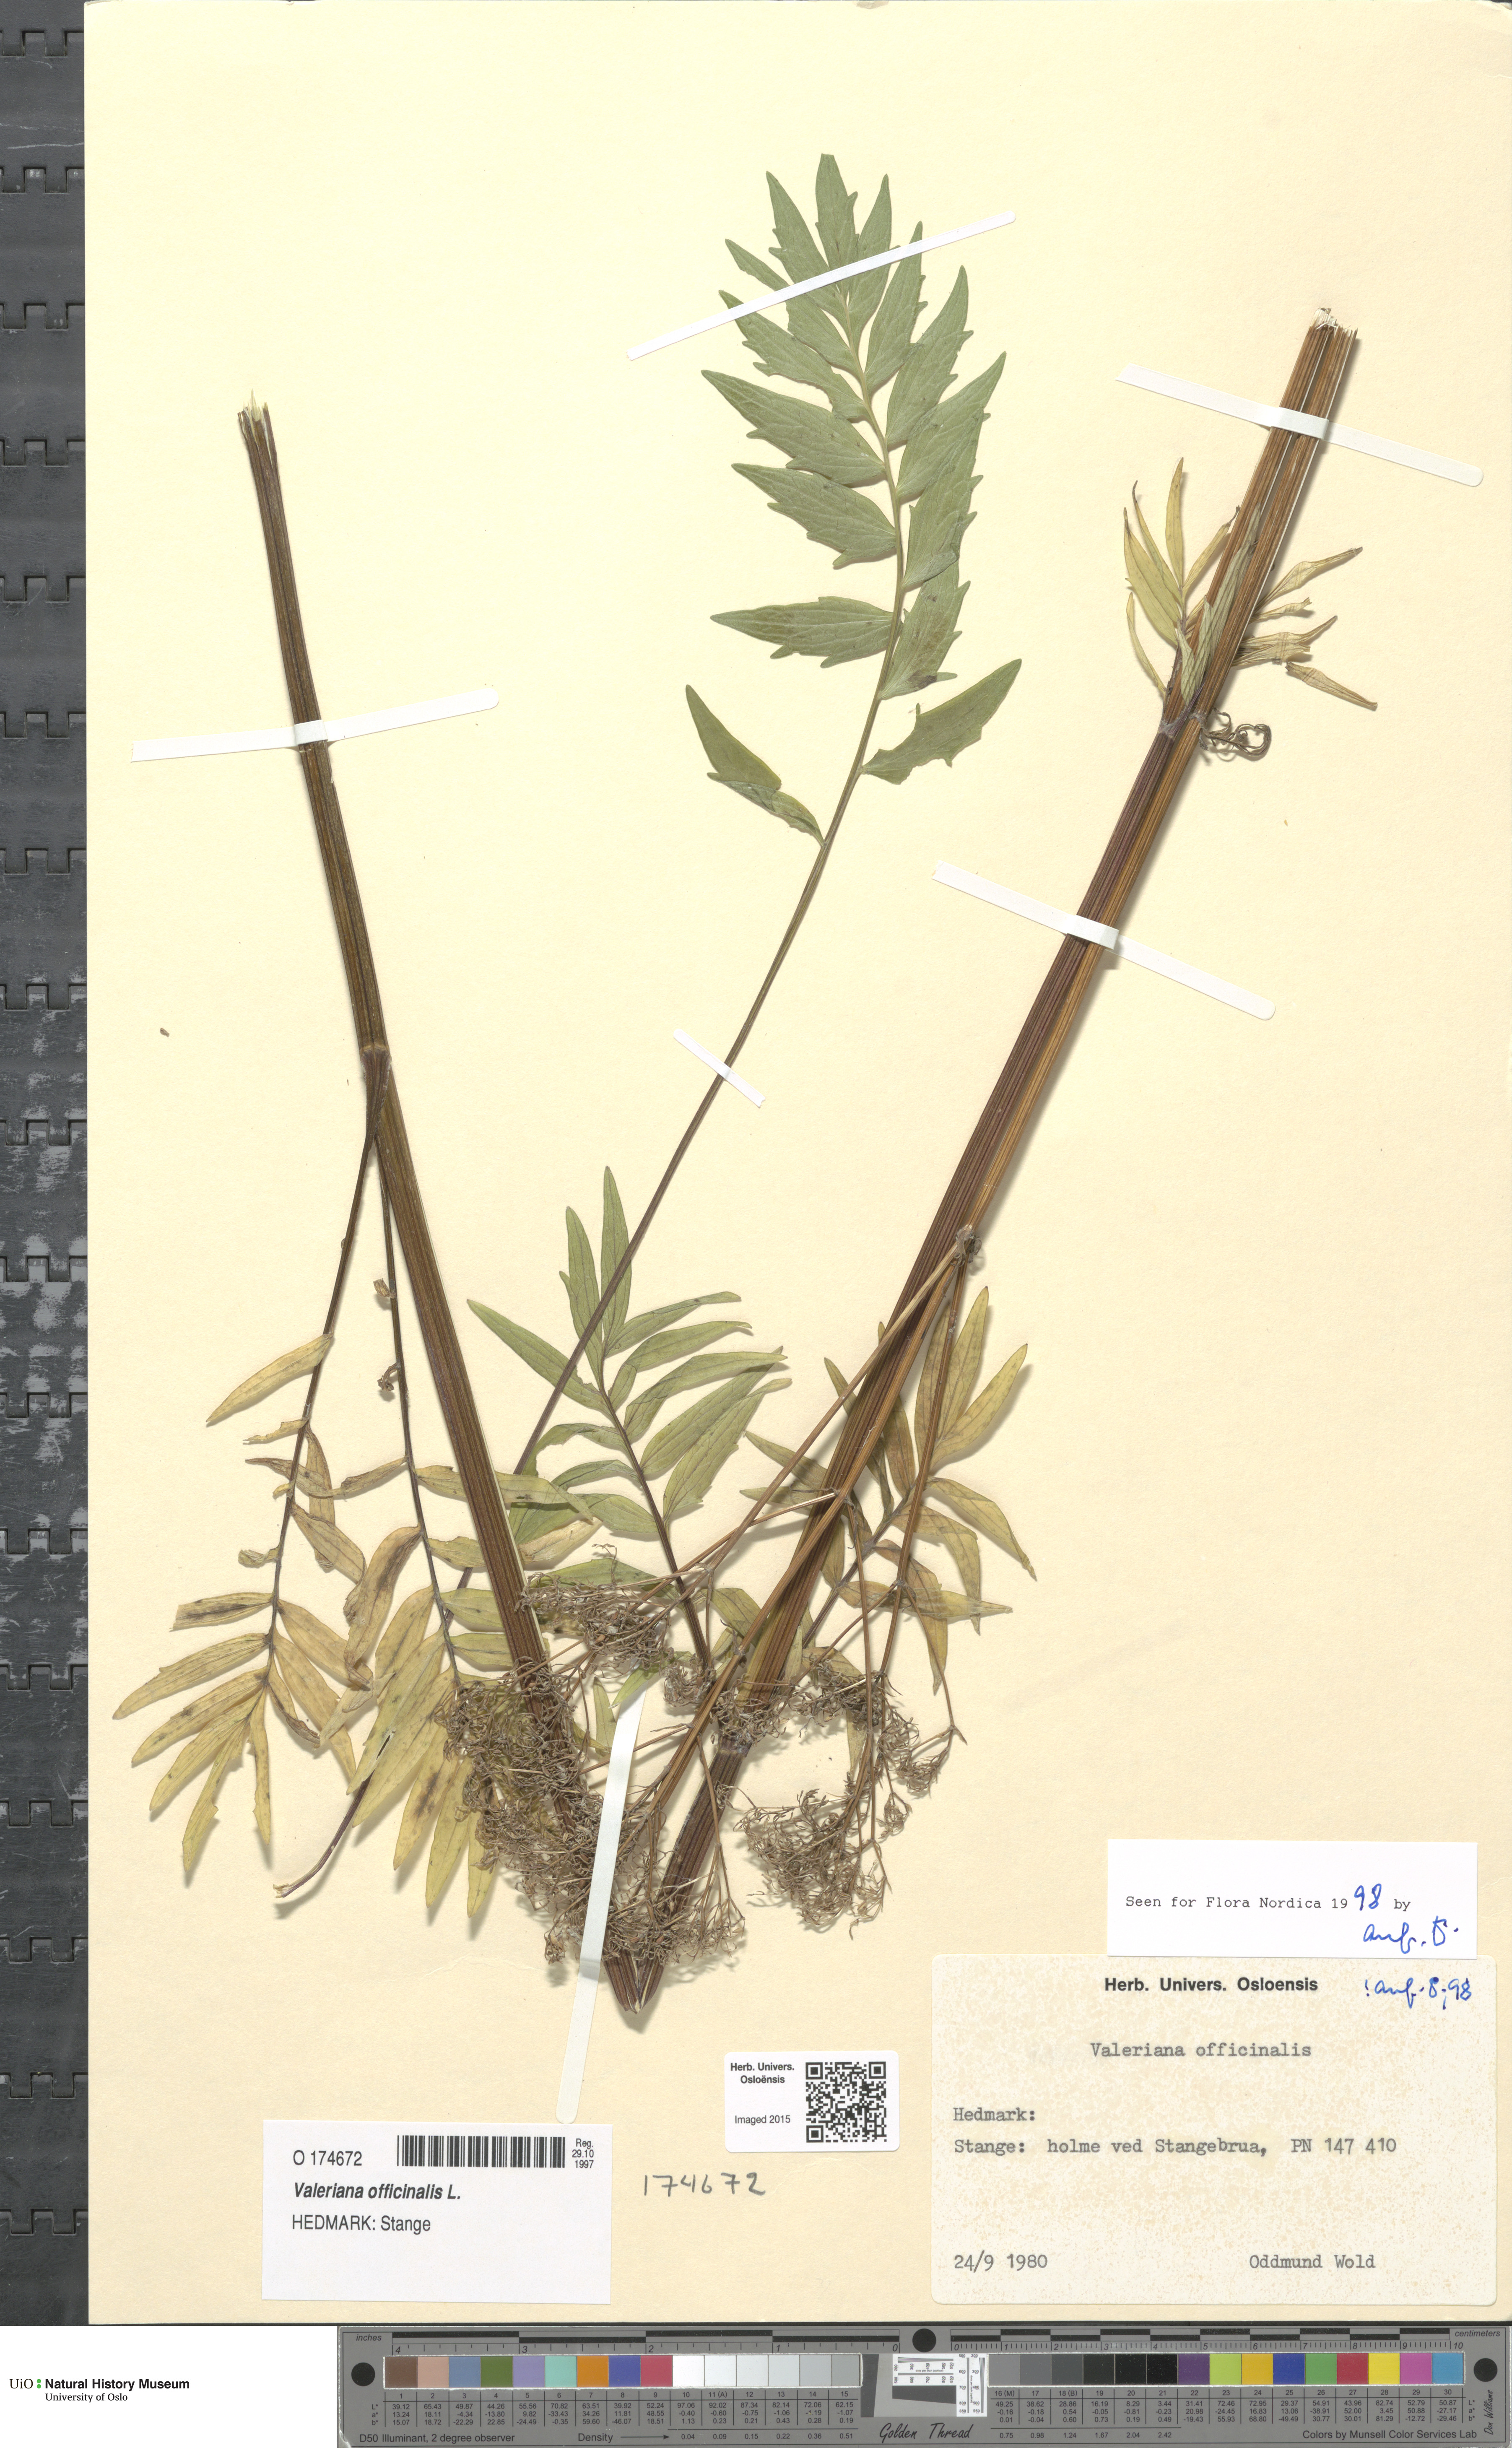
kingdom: Plantae
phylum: Tracheophyta
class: Magnoliopsida
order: Dipsacales
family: Caprifoliaceae
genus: Valeriana
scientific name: Valeriana officinalis
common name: Common valerian
